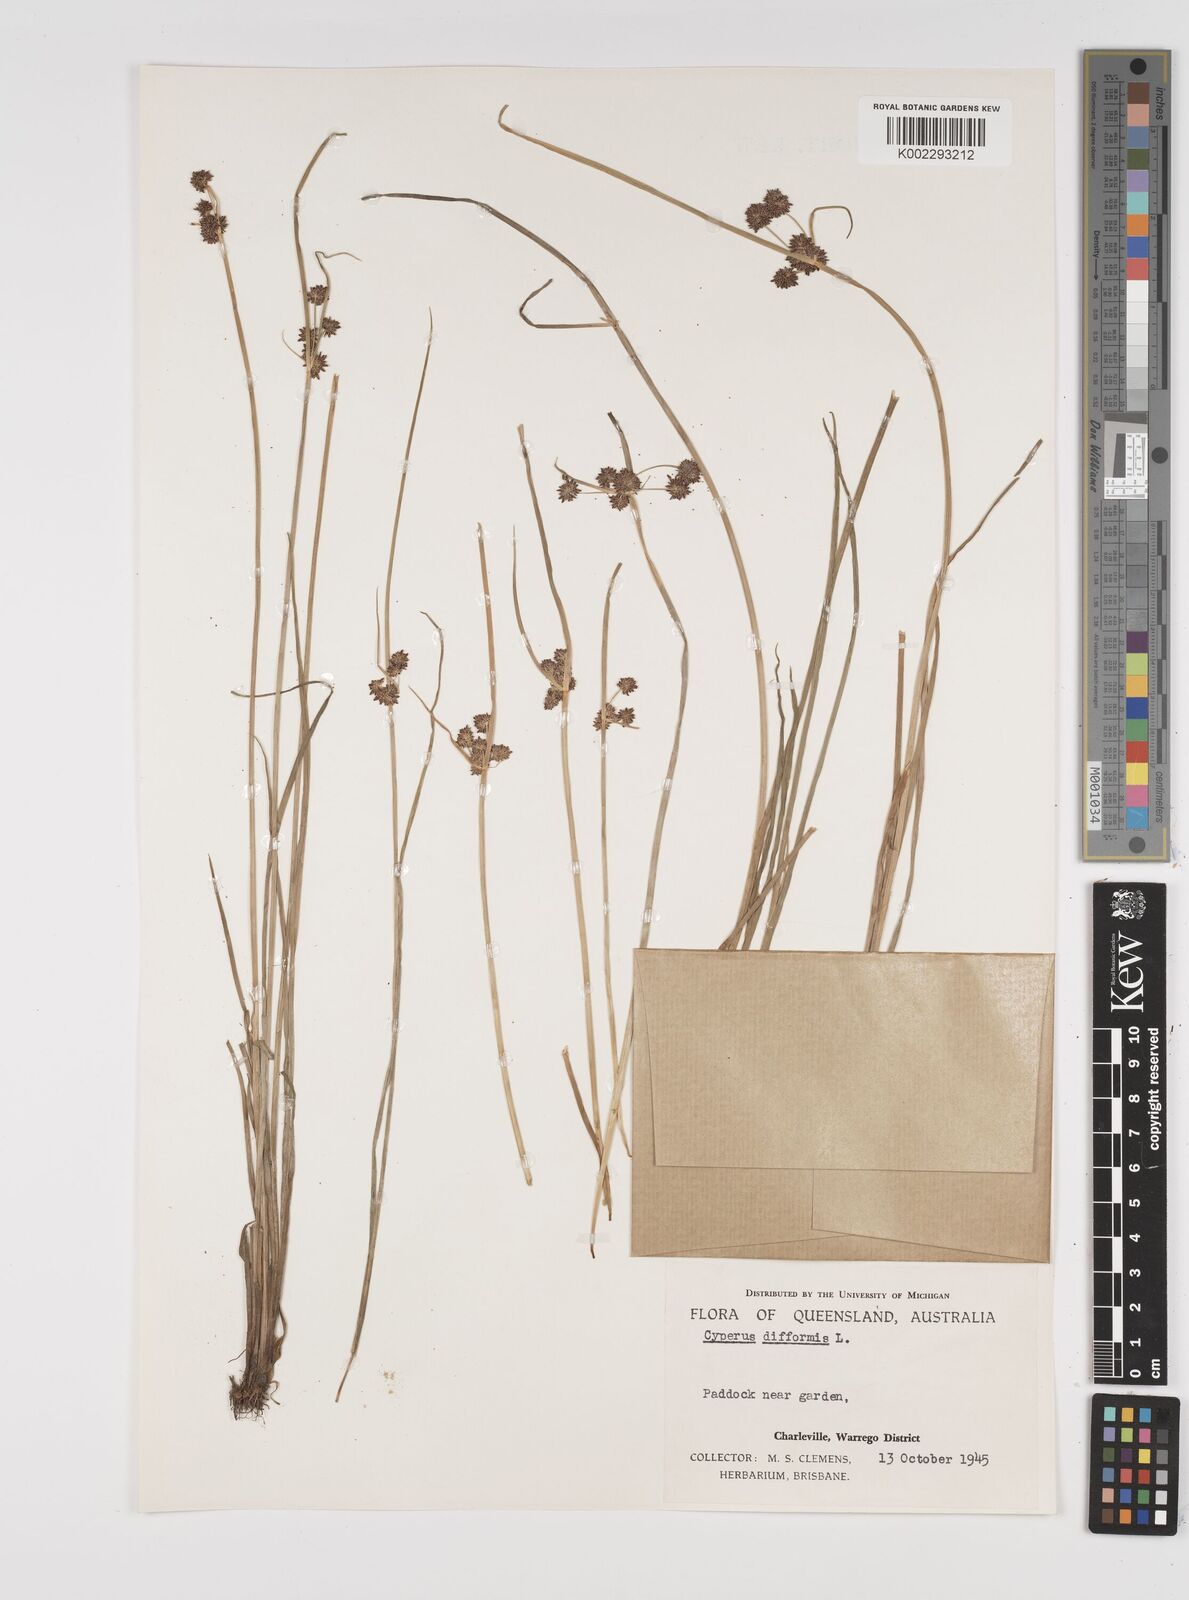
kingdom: Plantae
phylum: Tracheophyta
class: Liliopsida
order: Poales
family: Cyperaceae
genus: Cyperus
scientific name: Cyperus difformis
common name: Variable flatsedge
